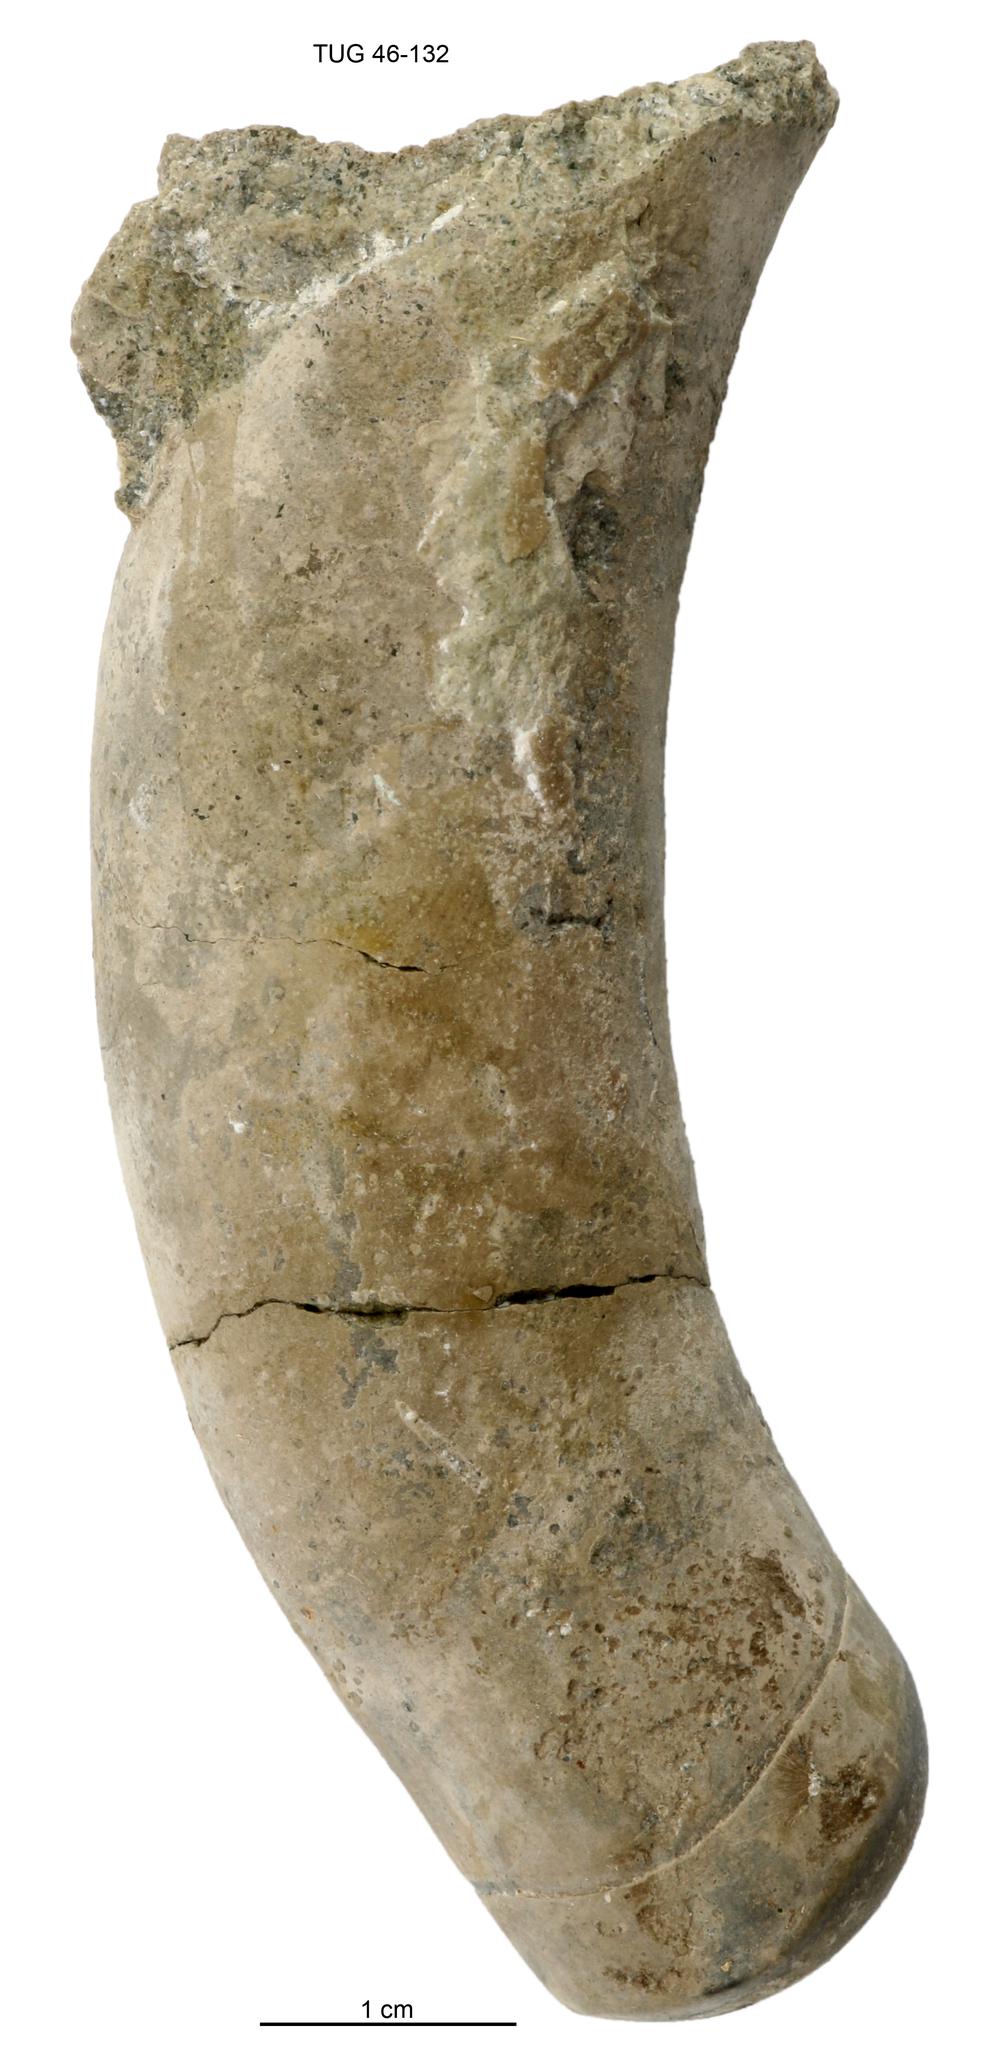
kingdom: Animalia
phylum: Mollusca
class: Cephalopoda
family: Tarphyceratidae
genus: Planctoceras
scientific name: Planctoceras
